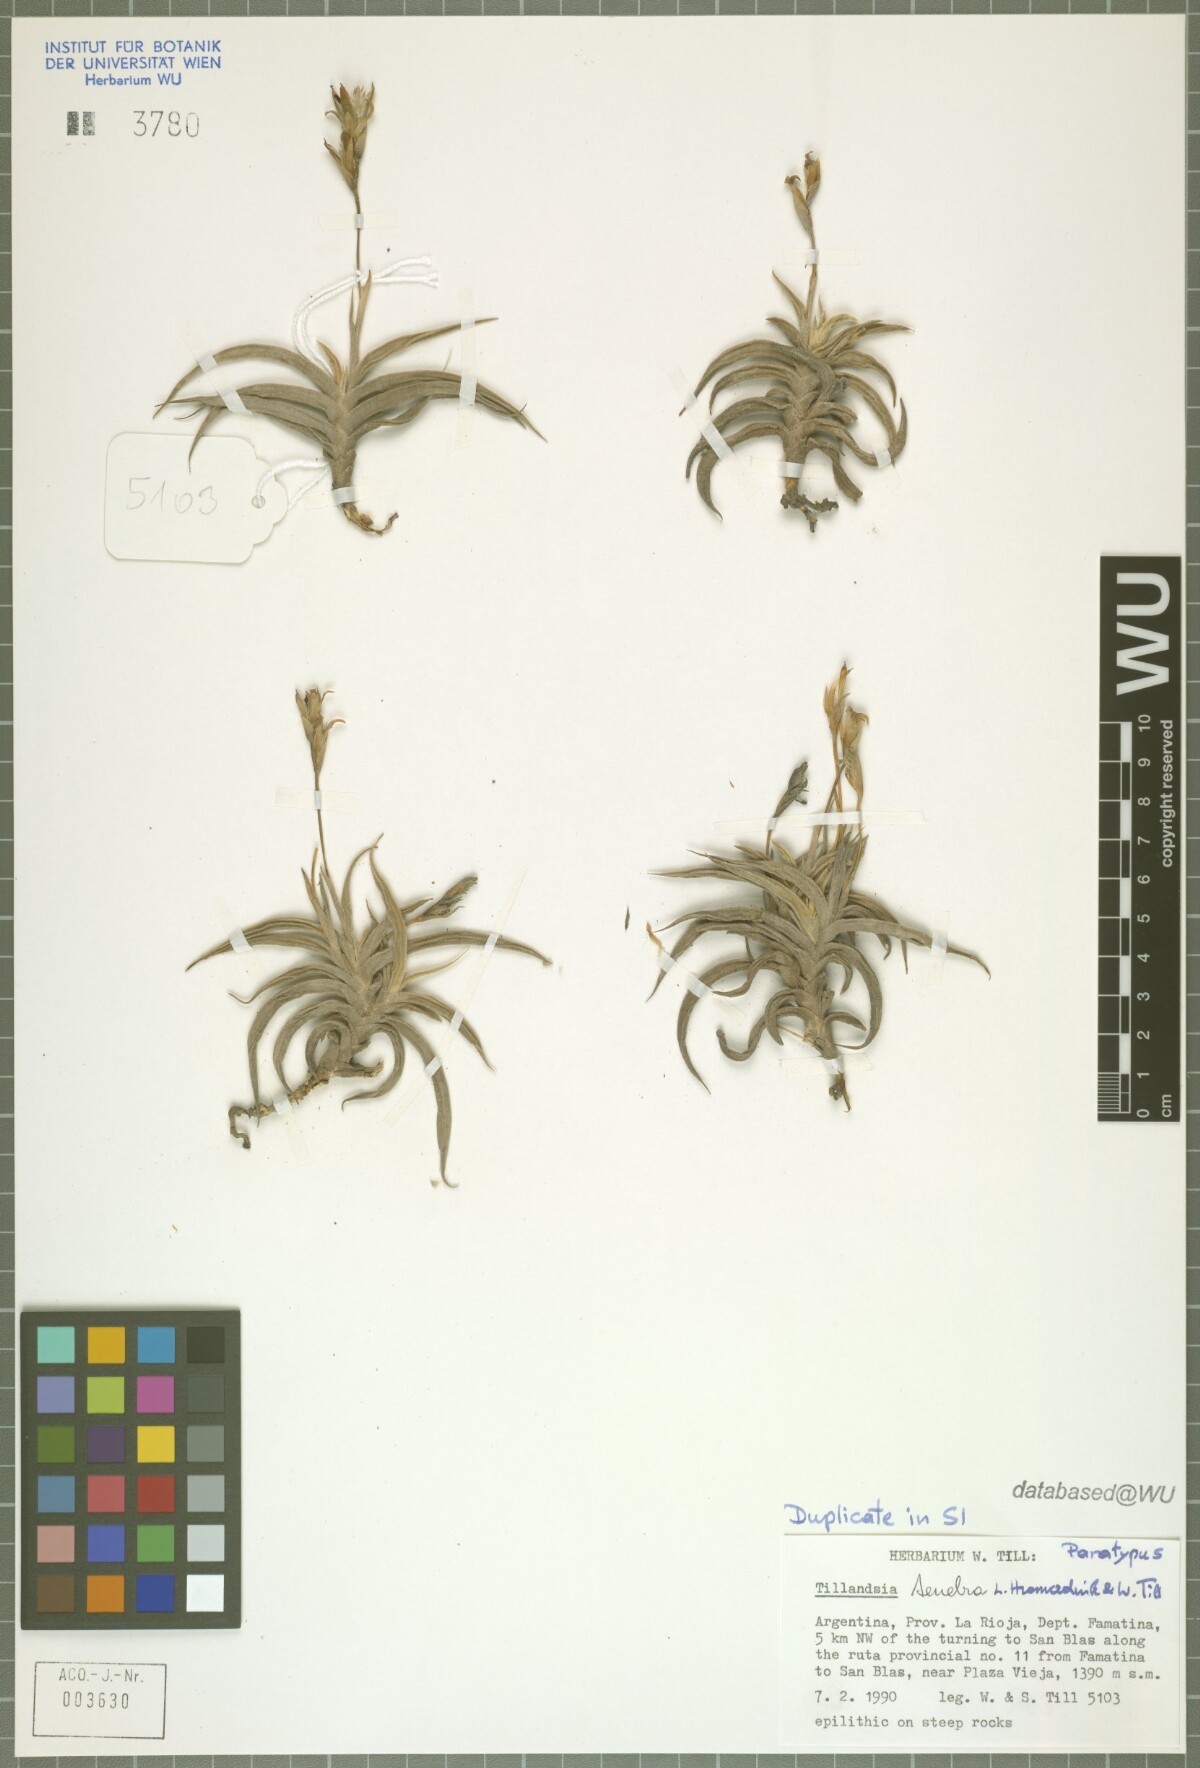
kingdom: Plantae
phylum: Tracheophyta
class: Liliopsida
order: Poales
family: Bromeliaceae
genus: Tillandsia
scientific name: Tillandsia tenebra
